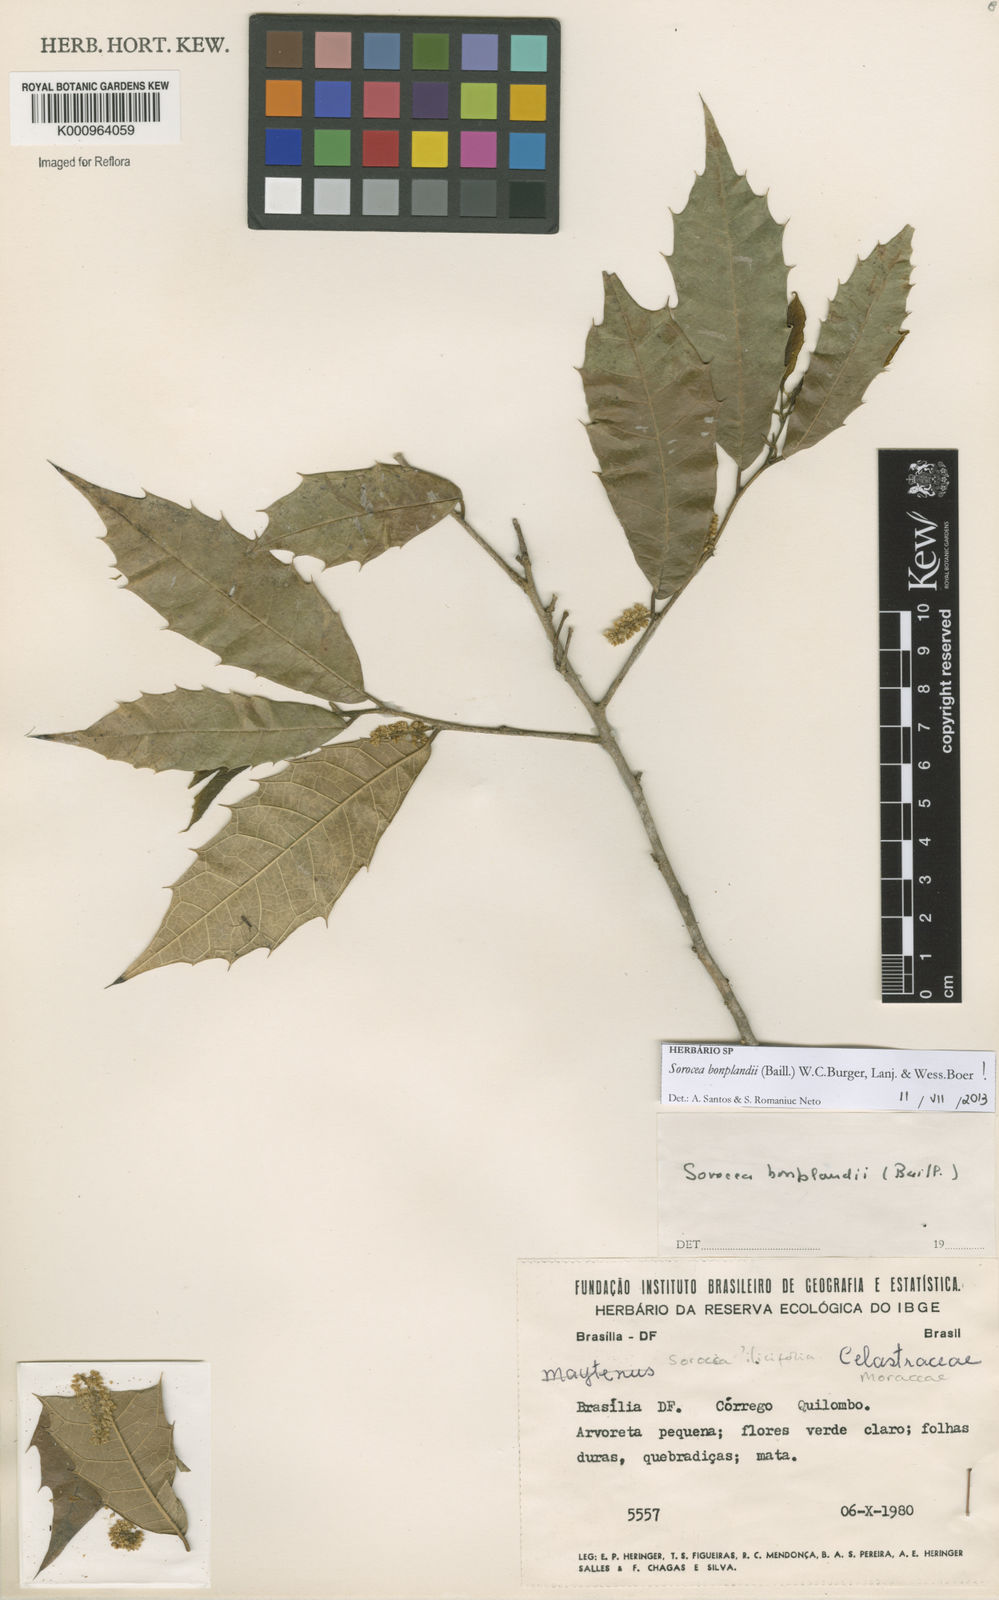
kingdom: Plantae
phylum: Tracheophyta
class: Magnoliopsida
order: Rosales
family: Moraceae
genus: Sorocea
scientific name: Sorocea
